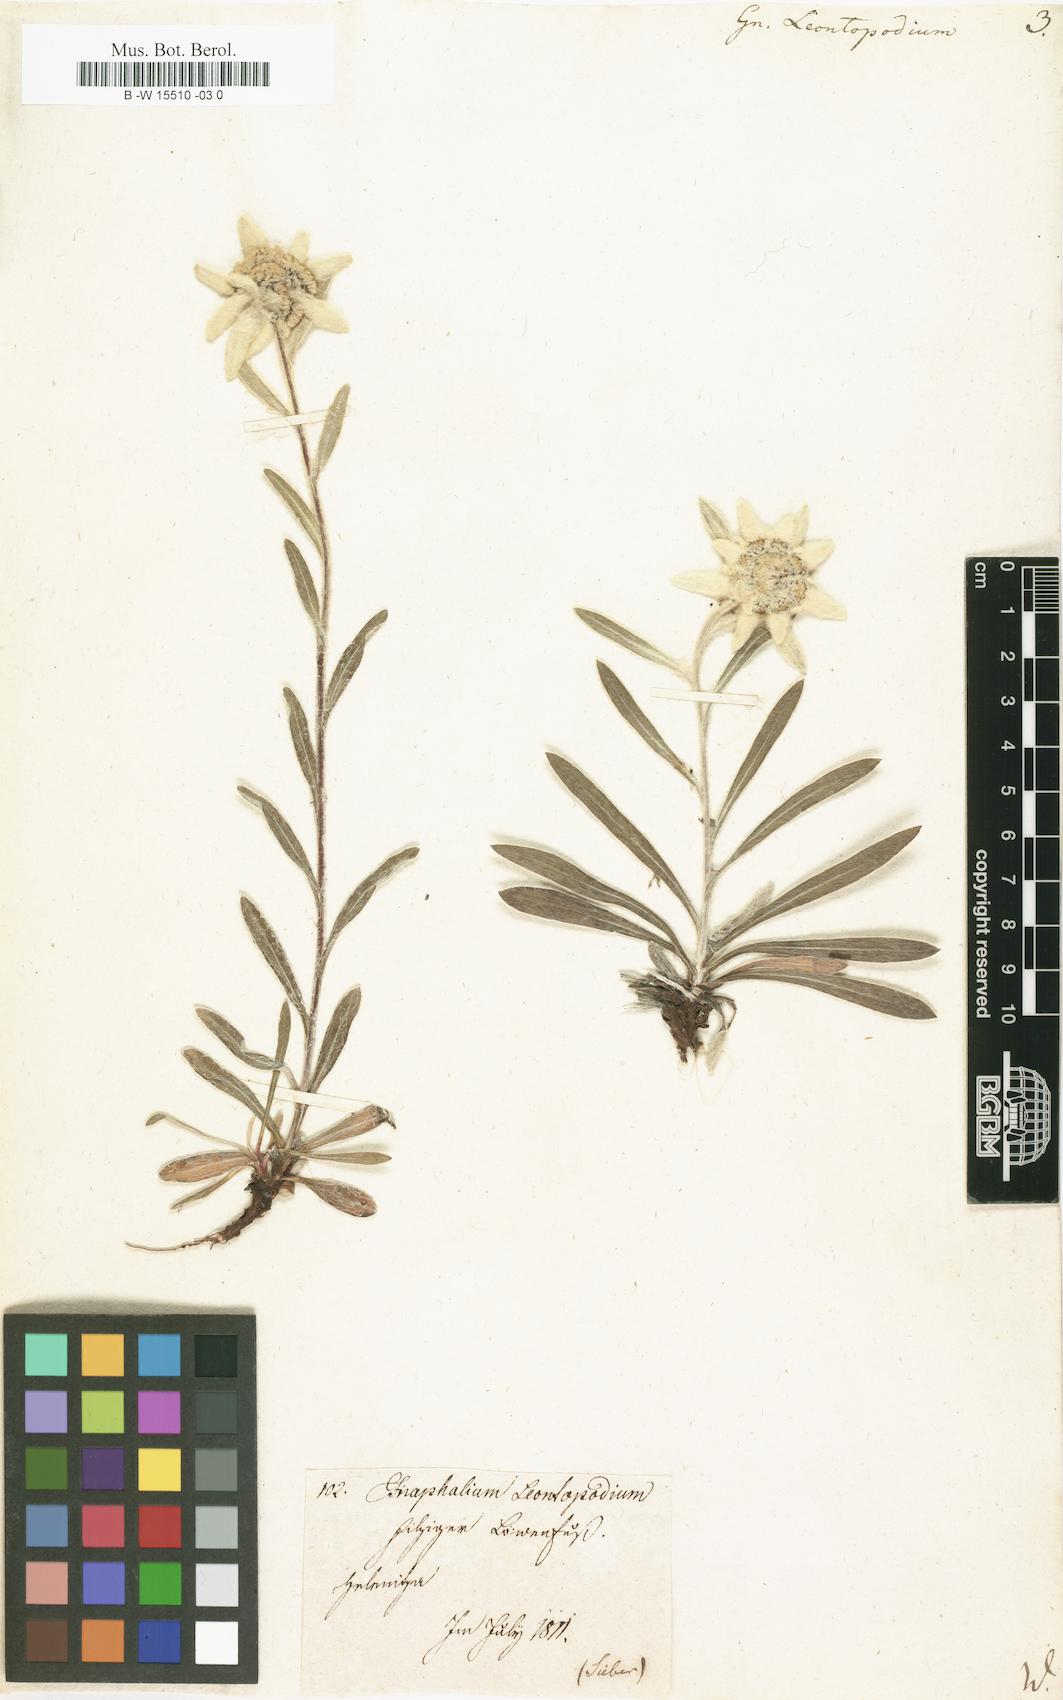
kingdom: Plantae
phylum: Tracheophyta
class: Magnoliopsida
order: Asterales
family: Asteraceae
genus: Gnaphalium
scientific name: Gnaphalium leontopodium
